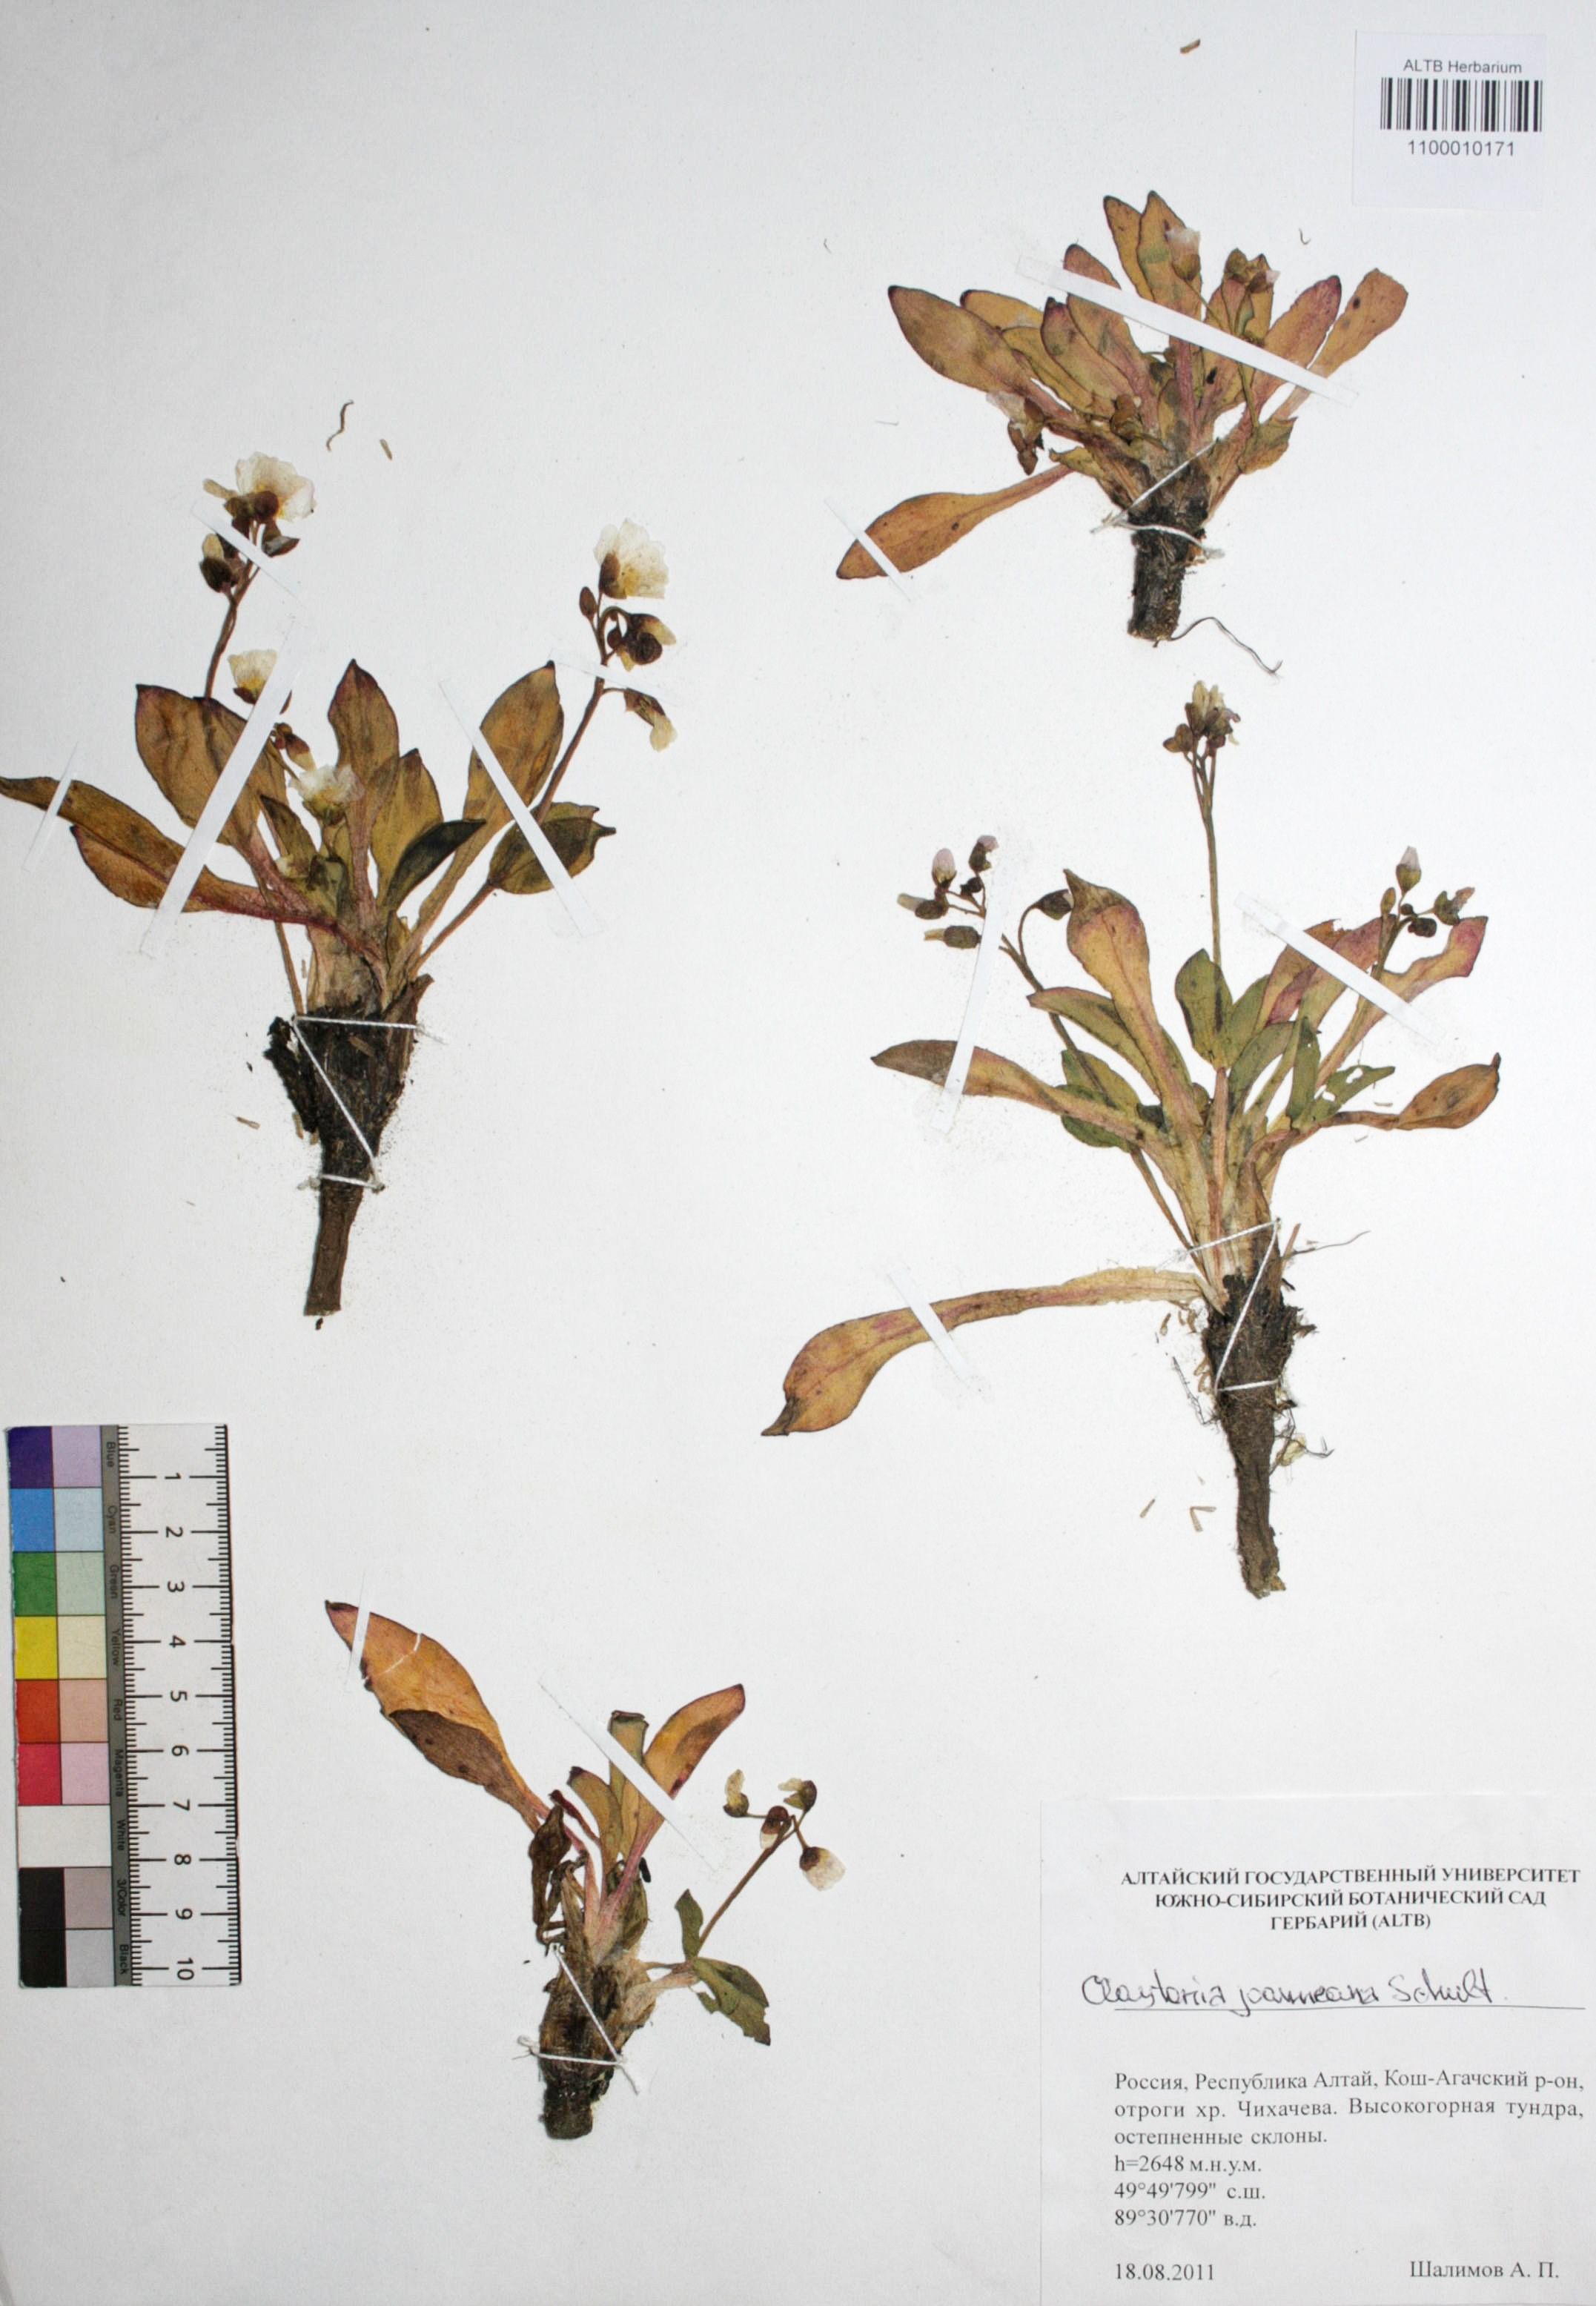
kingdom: Plantae
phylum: Tracheophyta
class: Magnoliopsida
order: Caryophyllales
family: Montiaceae
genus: Claytonia
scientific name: Claytonia joanneana
